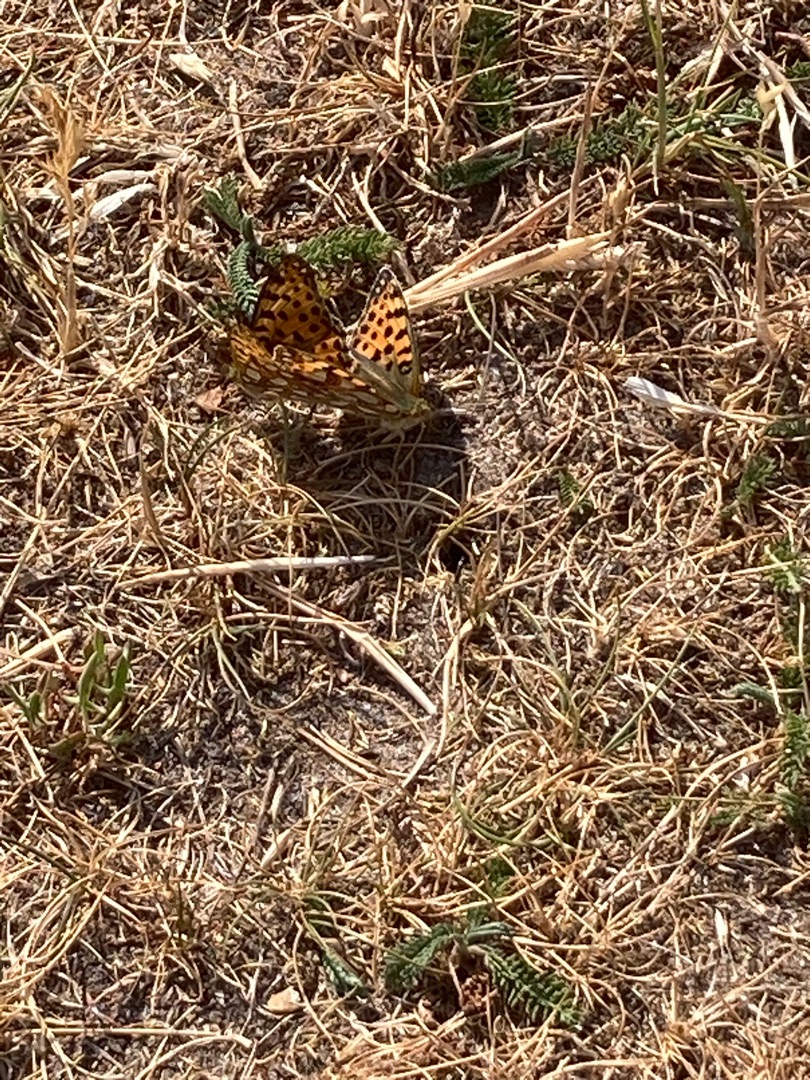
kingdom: Animalia
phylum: Arthropoda
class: Insecta
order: Lepidoptera
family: Nymphalidae
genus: Issoria
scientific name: Issoria lathonia
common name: Storplettet perlemorsommerfugl
